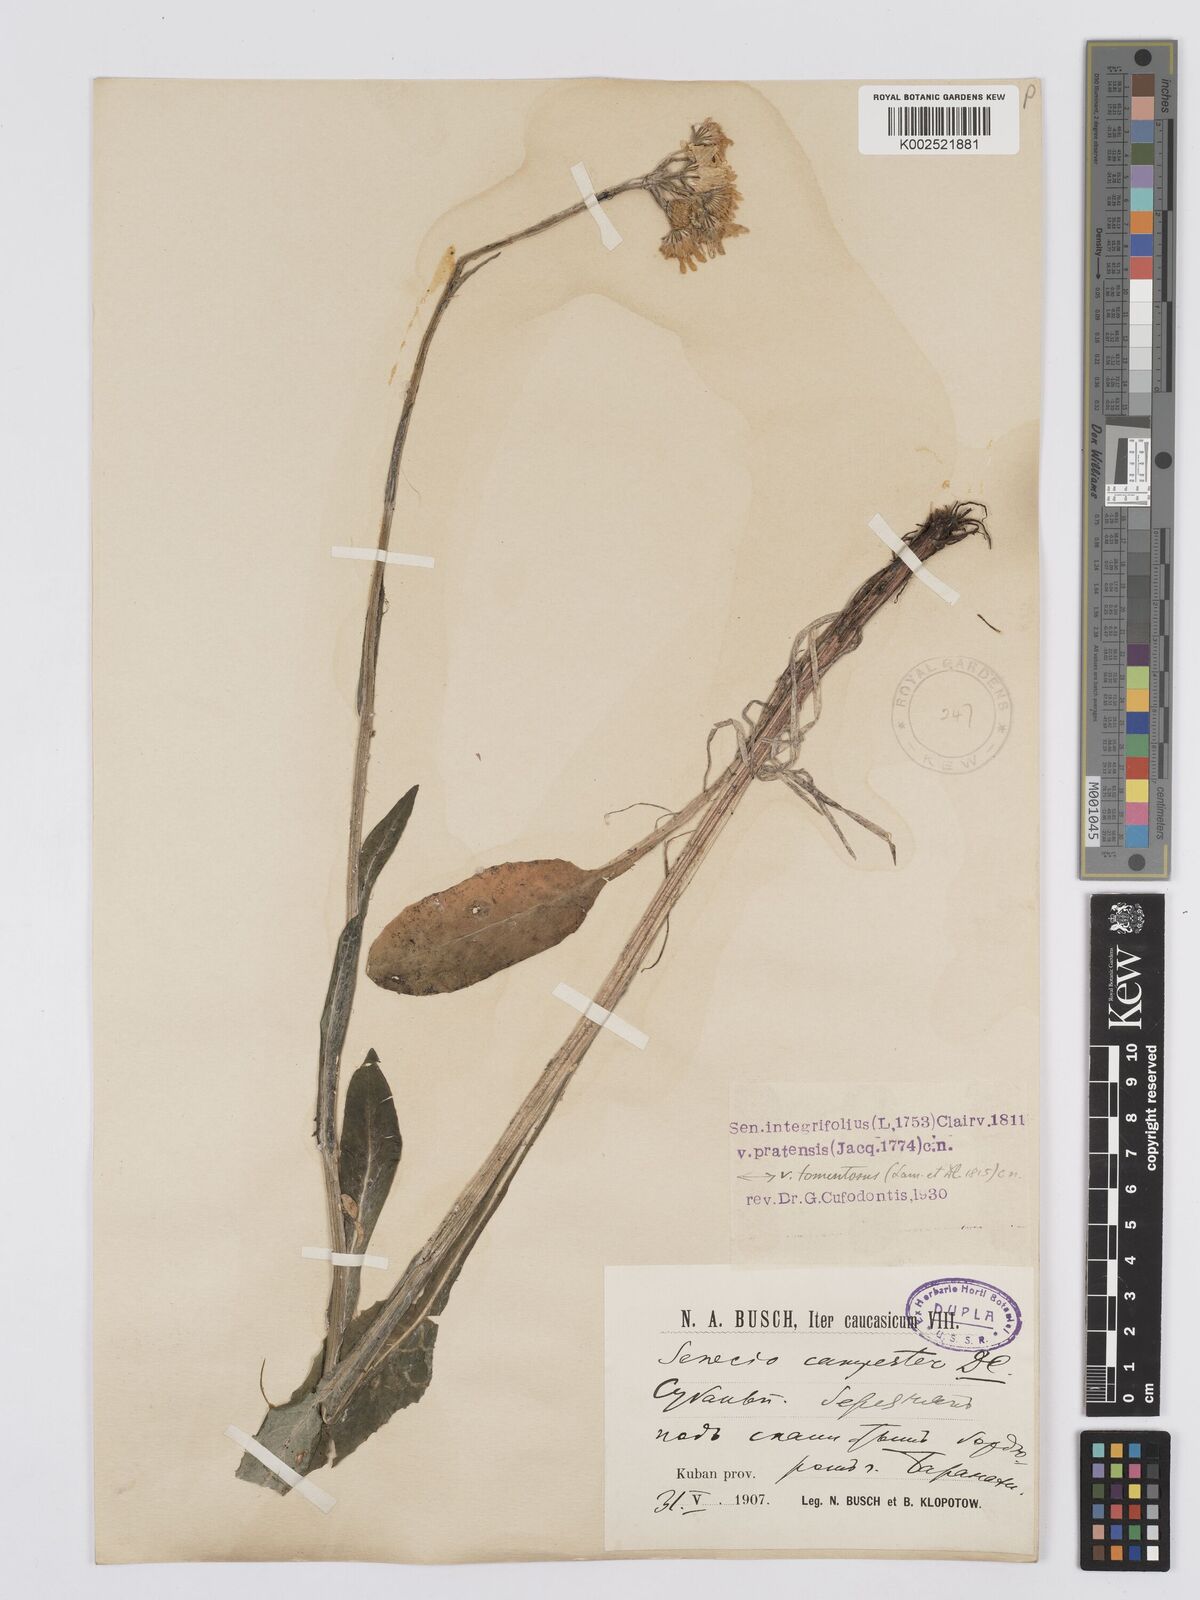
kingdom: Plantae
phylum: Tracheophyta
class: Magnoliopsida
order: Asterales
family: Asteraceae
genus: Tephroseris
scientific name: Tephroseris cladobotrys
